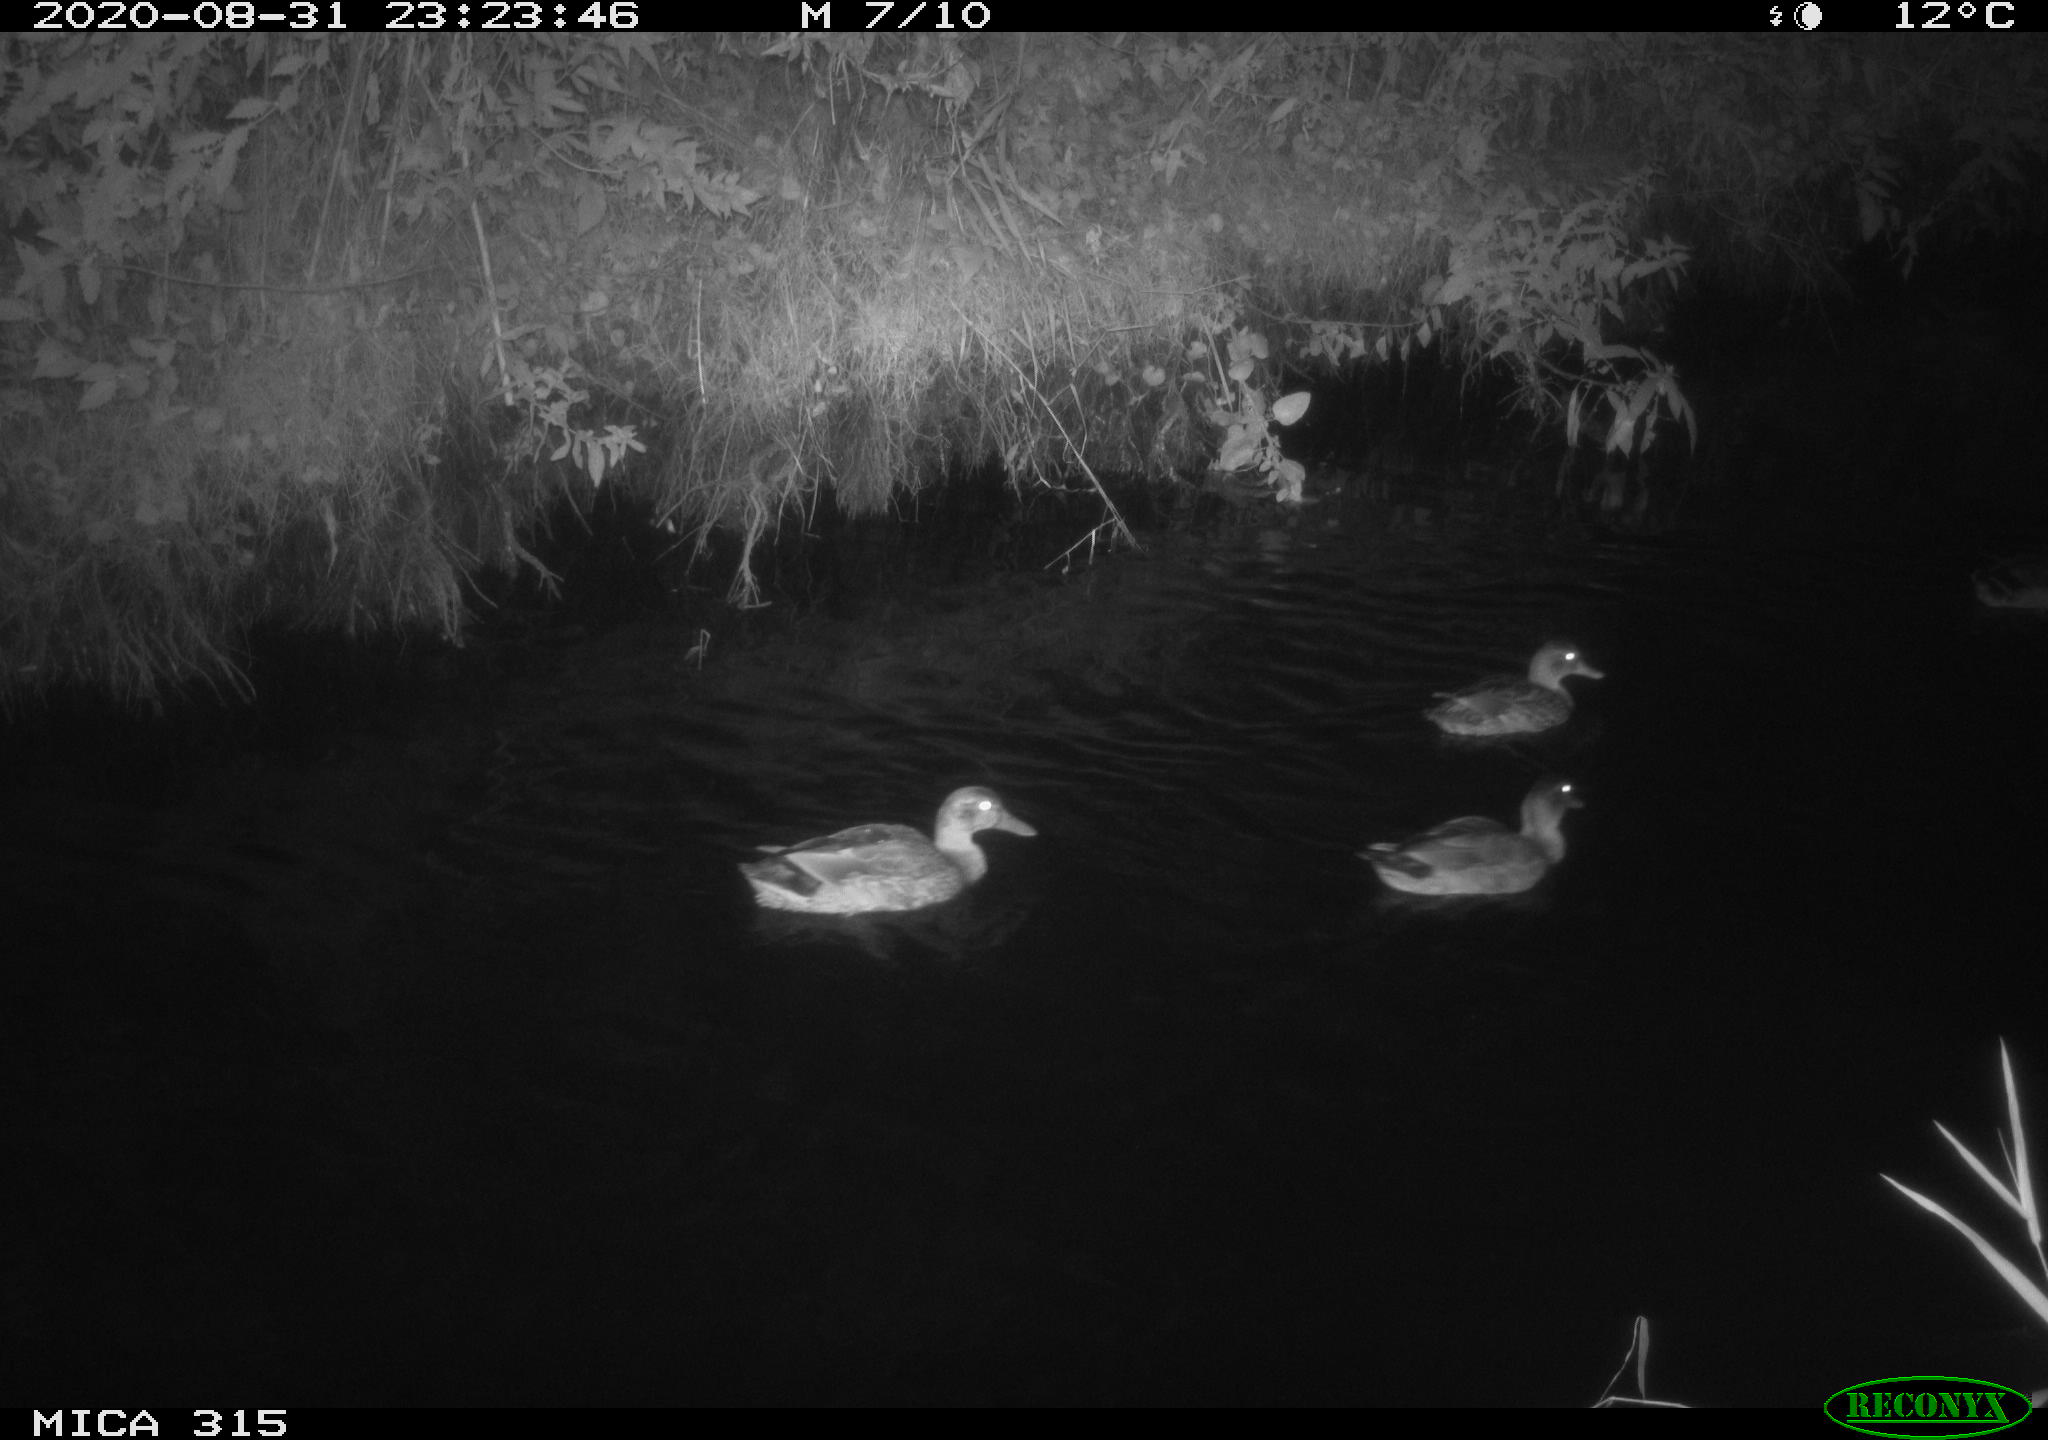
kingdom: Animalia
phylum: Chordata
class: Aves
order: Anseriformes
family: Anatidae
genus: Anas
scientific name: Anas platyrhynchos
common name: Mallard
